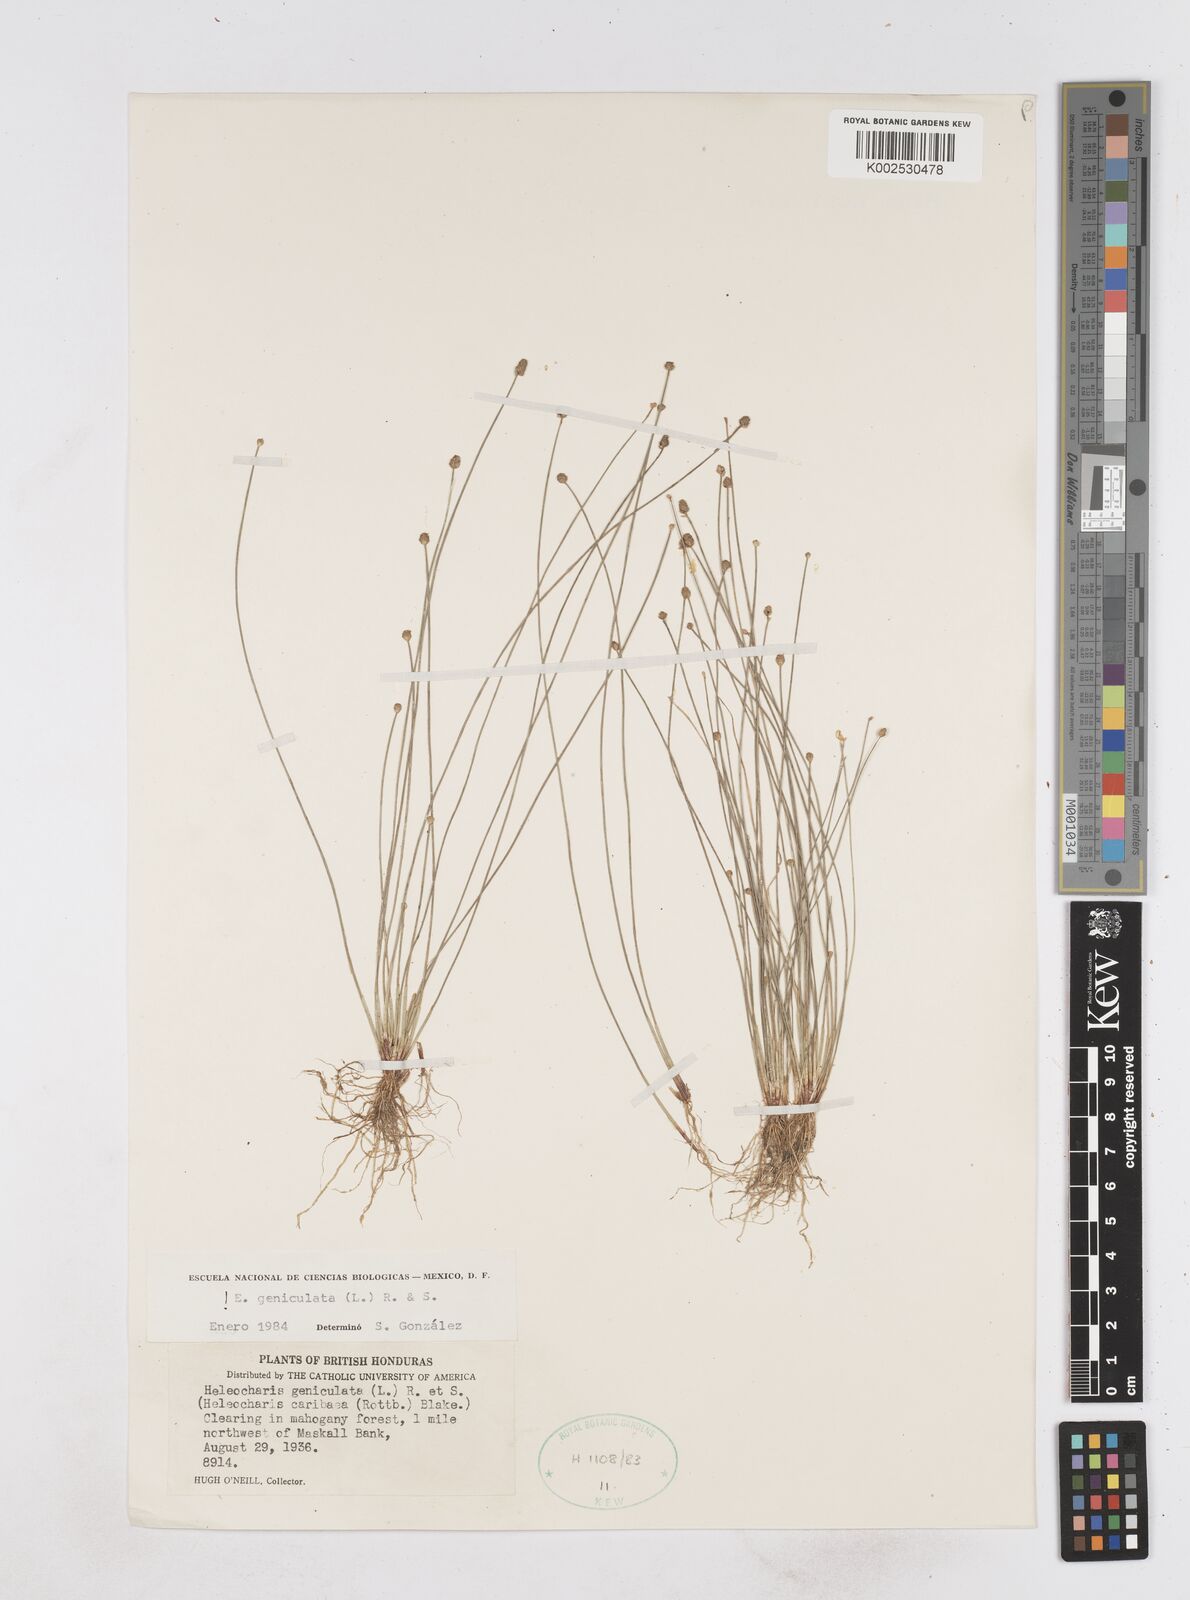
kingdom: Plantae
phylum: Tracheophyta
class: Liliopsida
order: Poales
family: Cyperaceae
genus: Eleocharis
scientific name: Eleocharis geniculata
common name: Canada spikesedge
